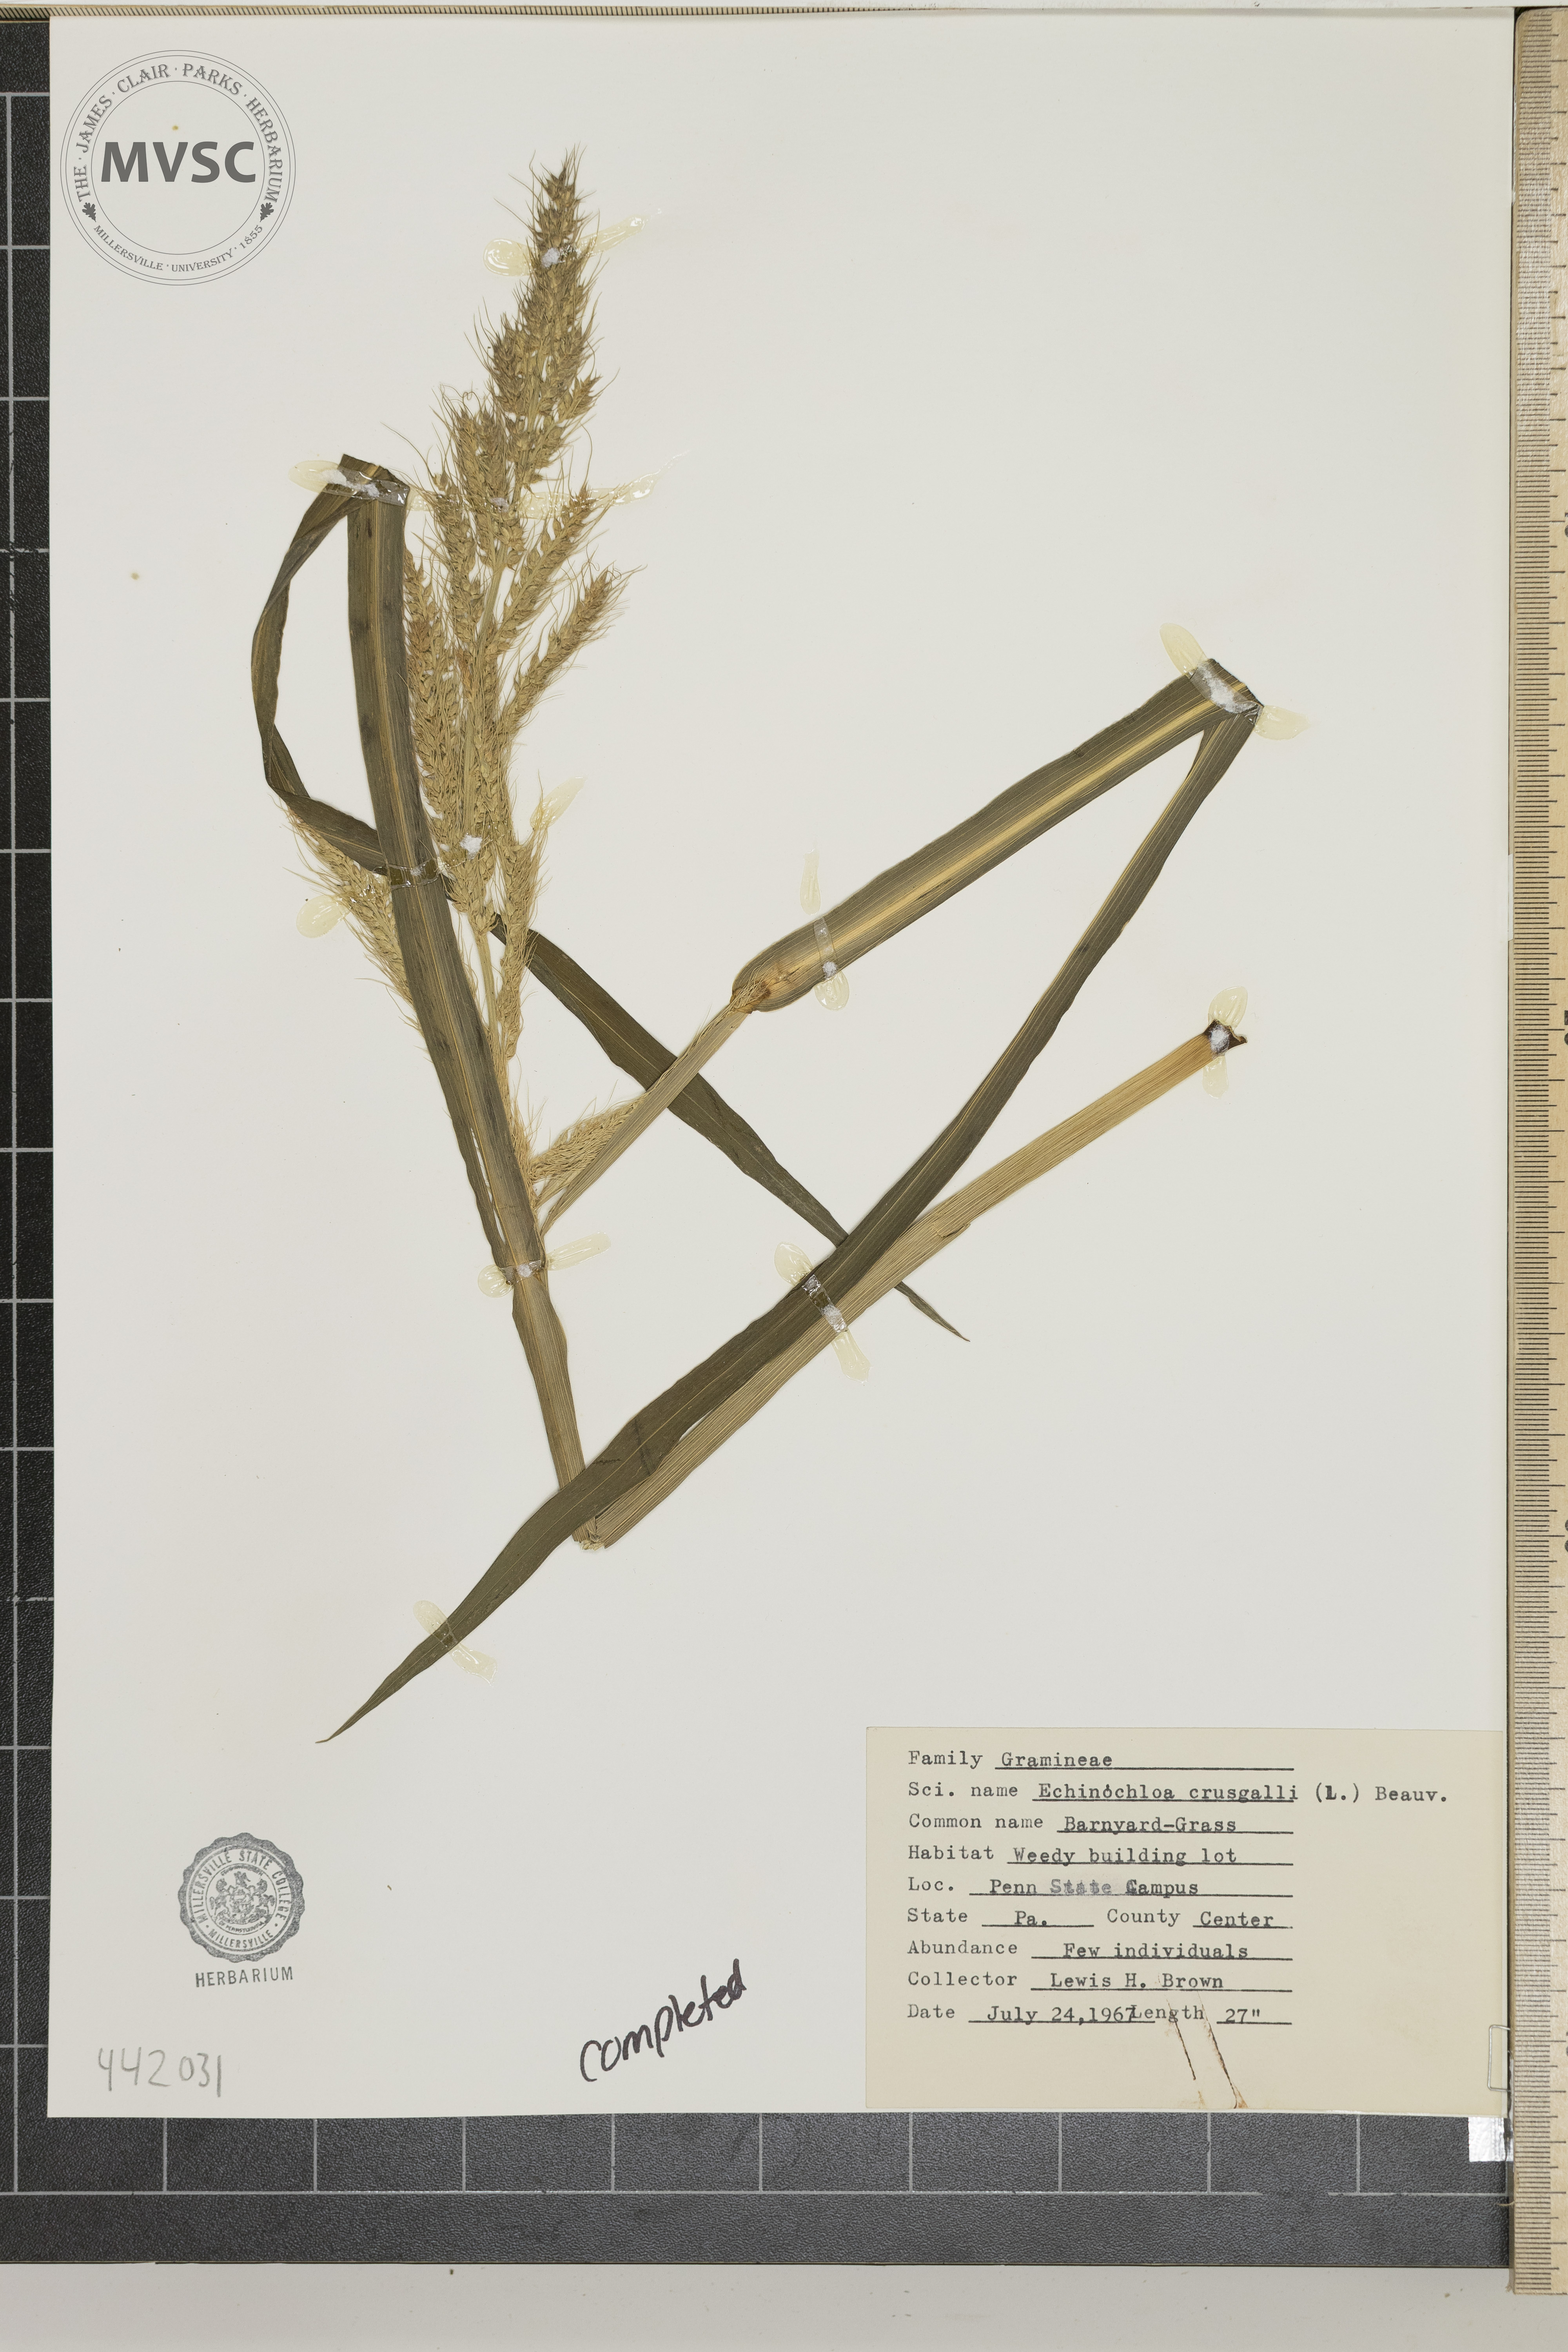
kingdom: Plantae
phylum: Tracheophyta
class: Liliopsida
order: Poales
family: Poaceae
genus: Echinochloa
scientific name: Echinochloa crus-galli
